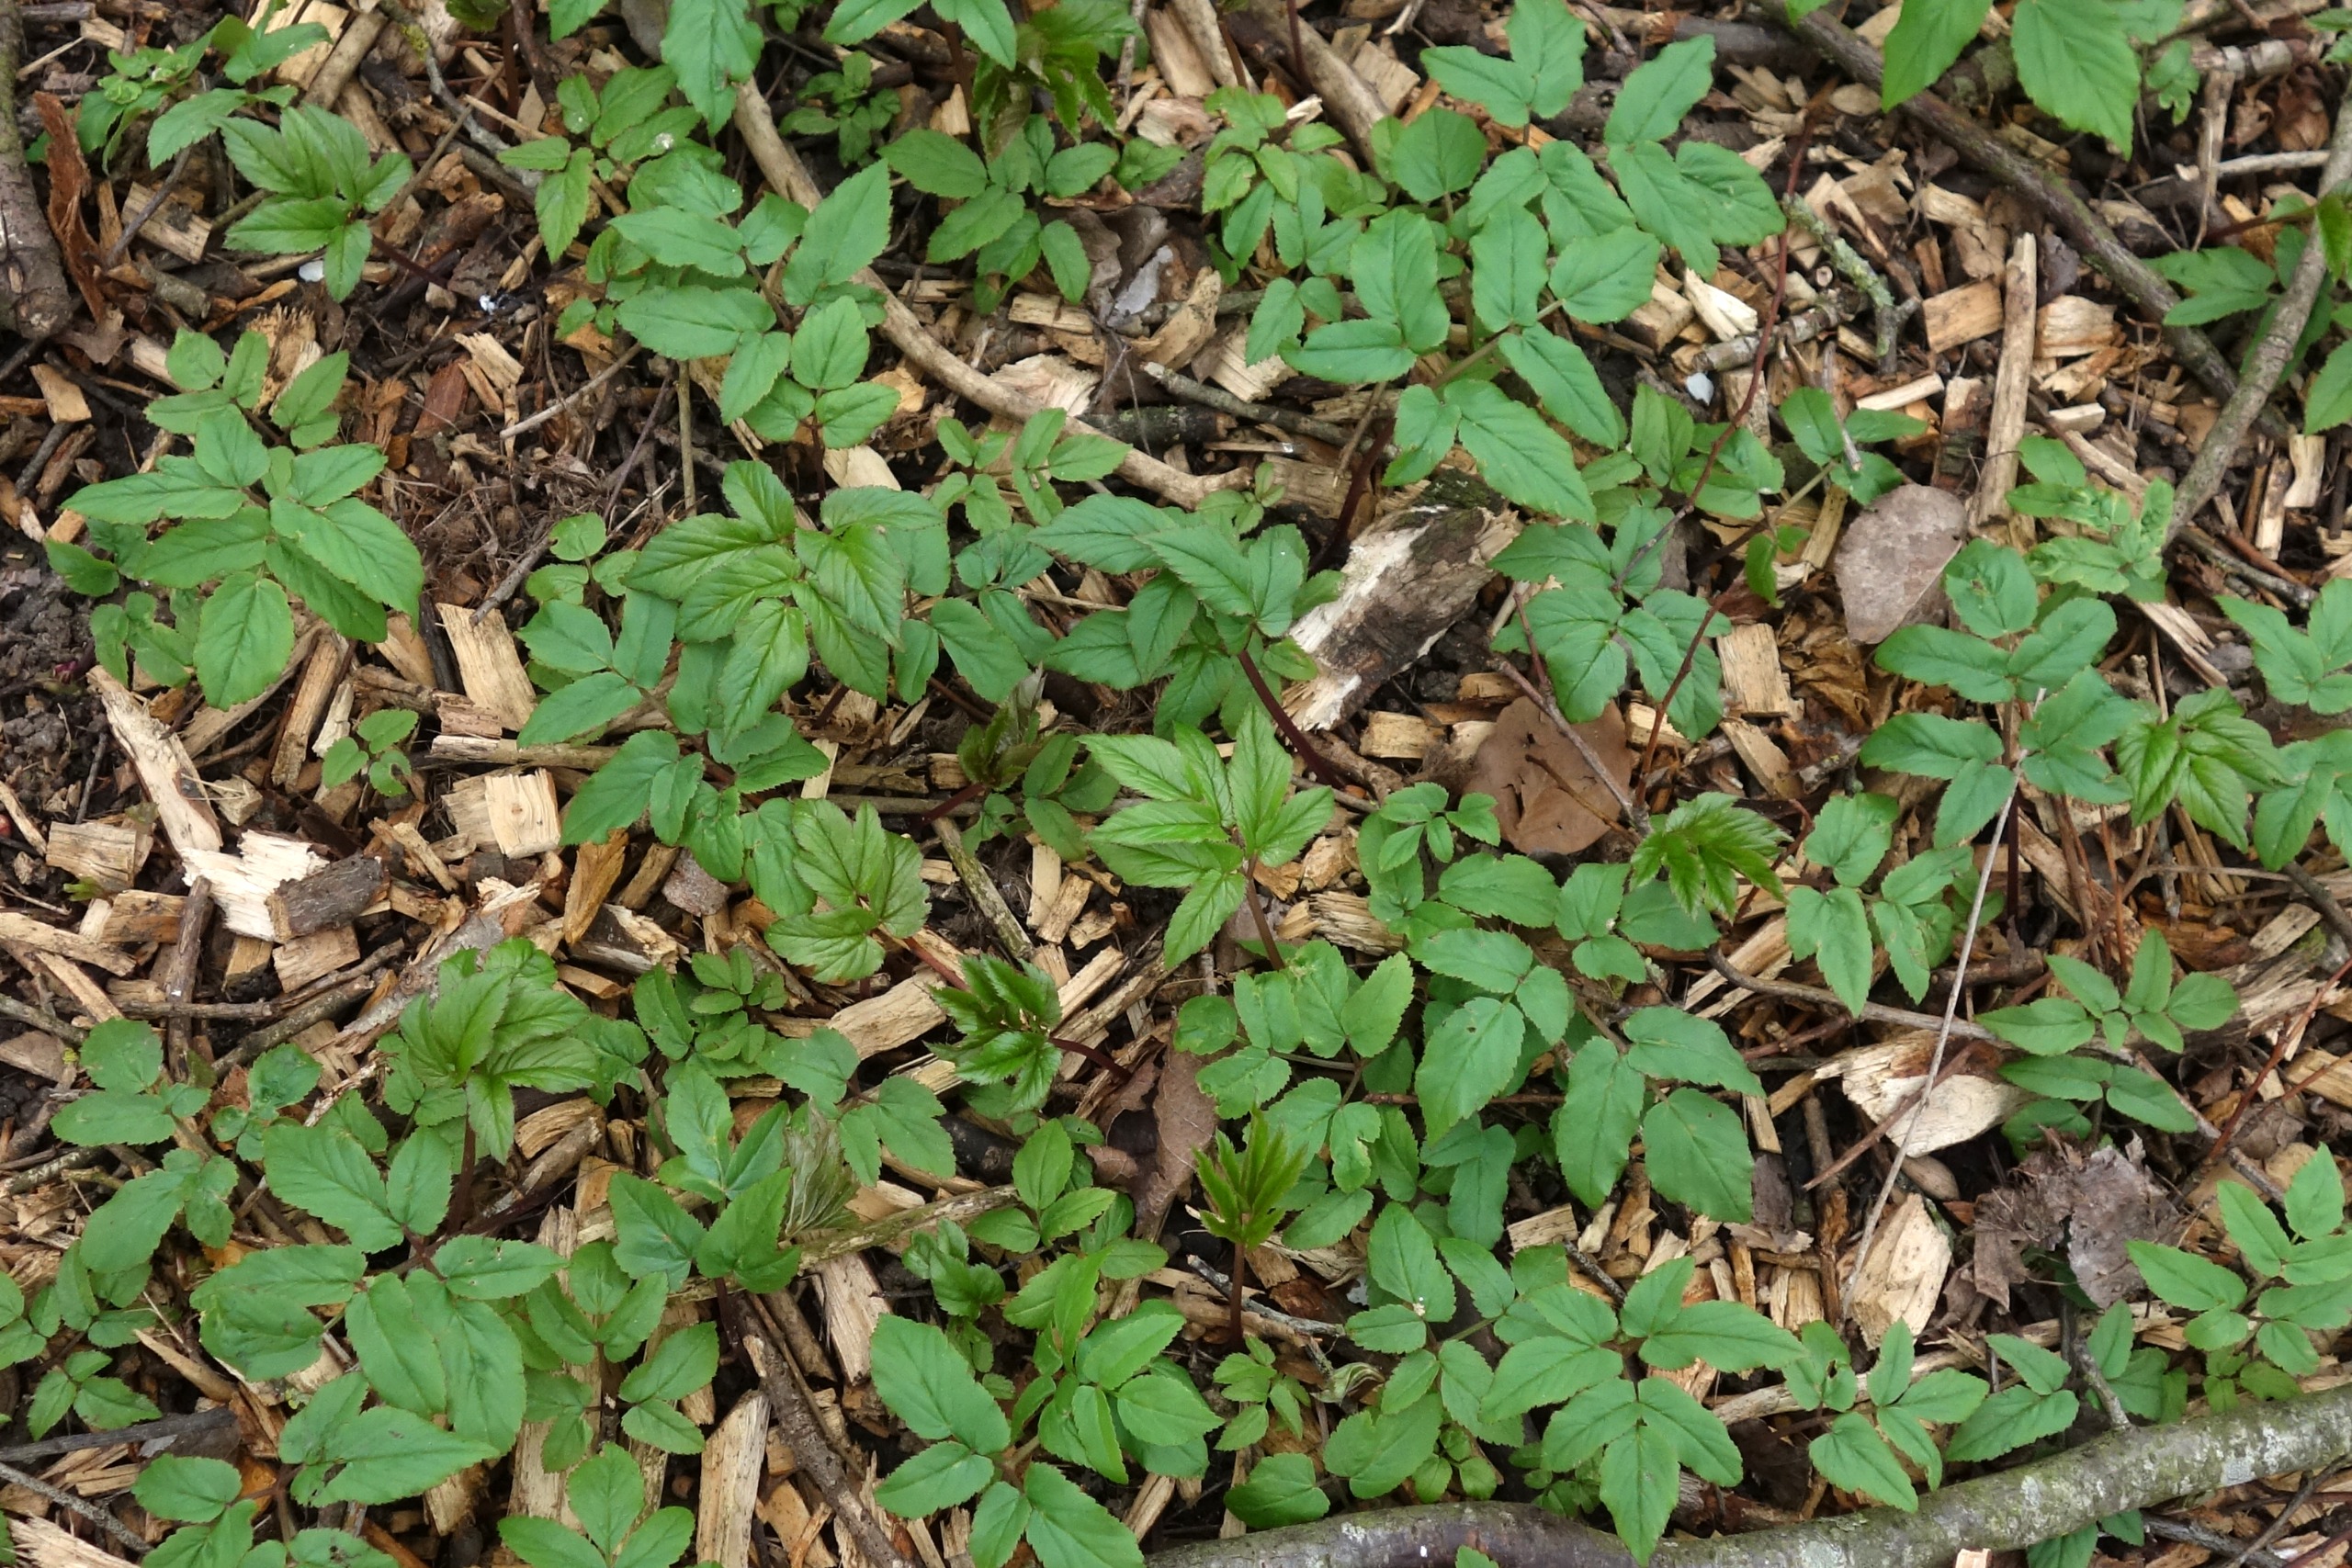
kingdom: Plantae
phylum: Tracheophyta
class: Magnoliopsida
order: Apiales
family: Apiaceae
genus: Aegopodium
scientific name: Aegopodium podagraria
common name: Skvalderkål
